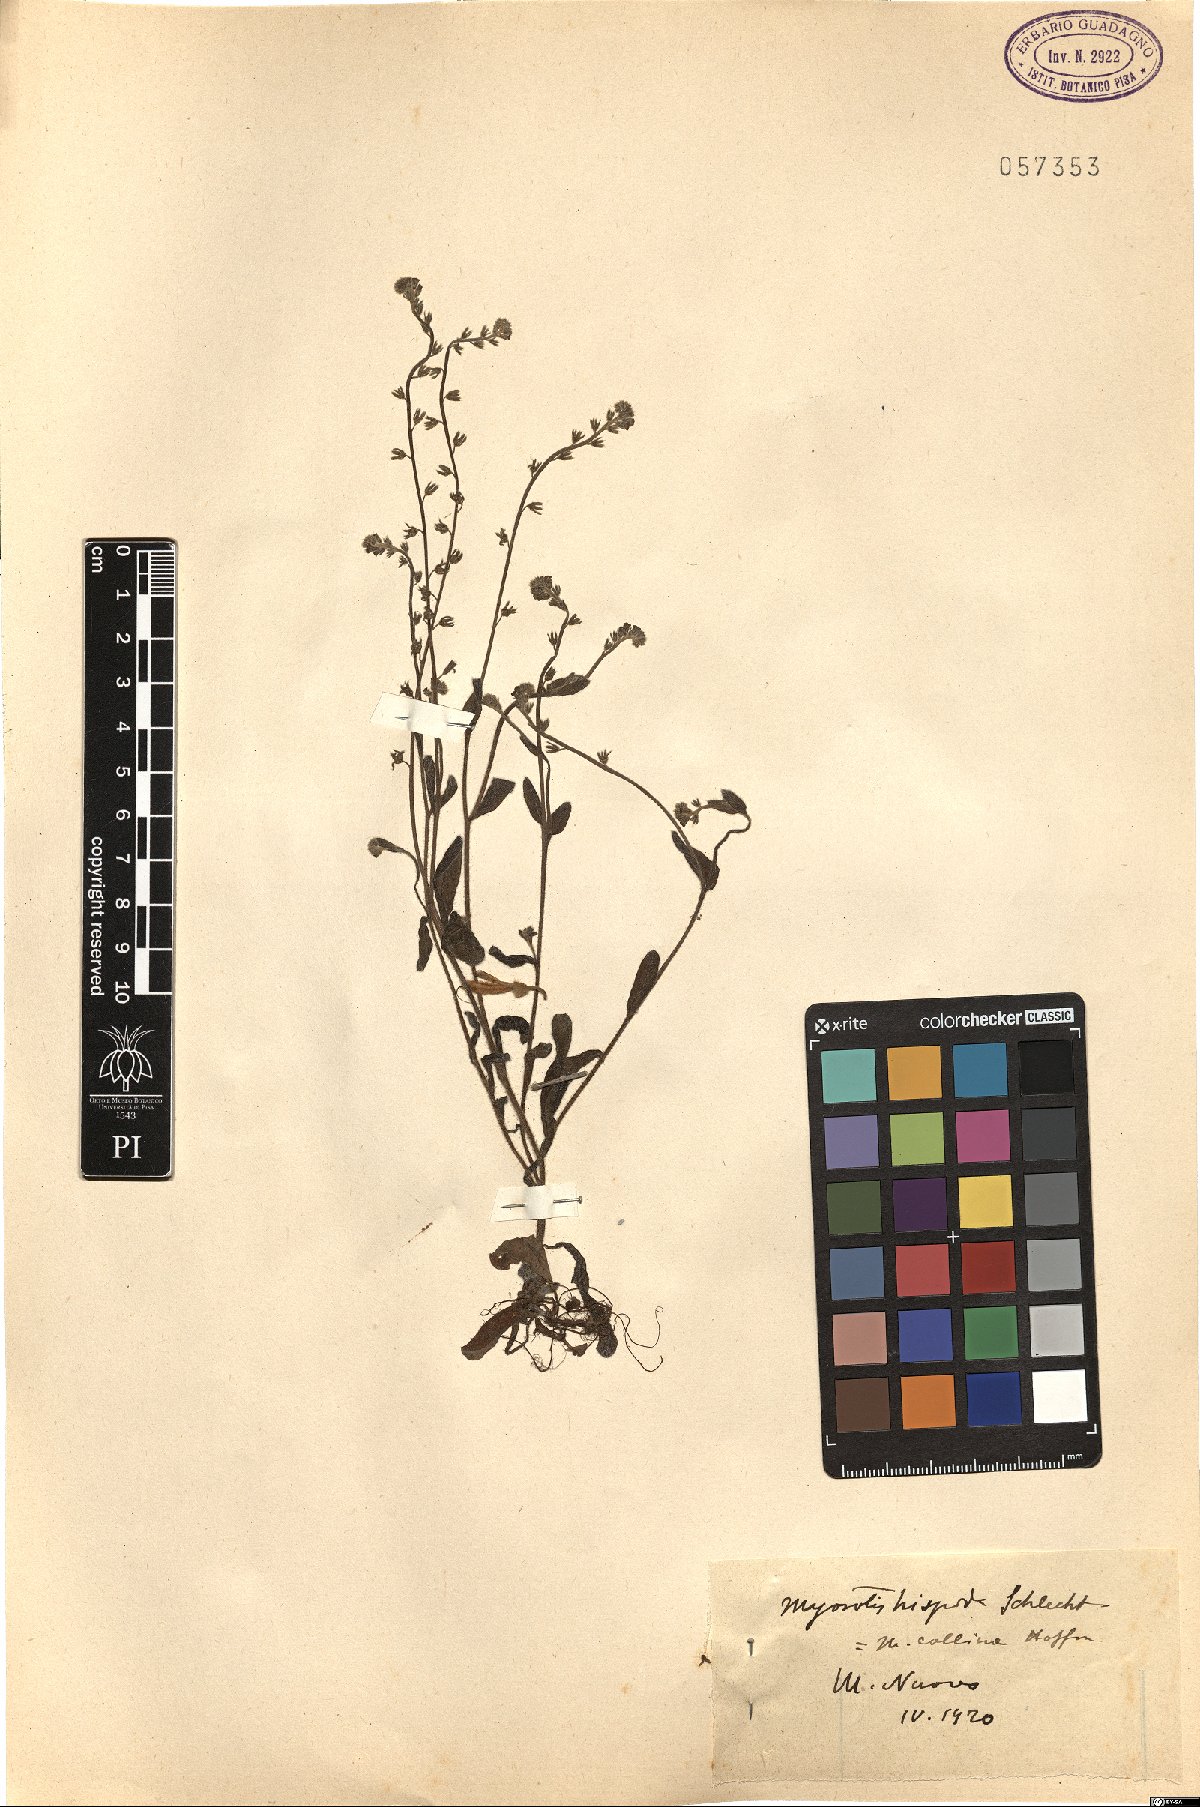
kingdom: Plantae
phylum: Tracheophyta
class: Magnoliopsida
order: Boraginales
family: Boraginaceae
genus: Myosotis
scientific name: Myosotis ramosissima
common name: Early forget-me-not
